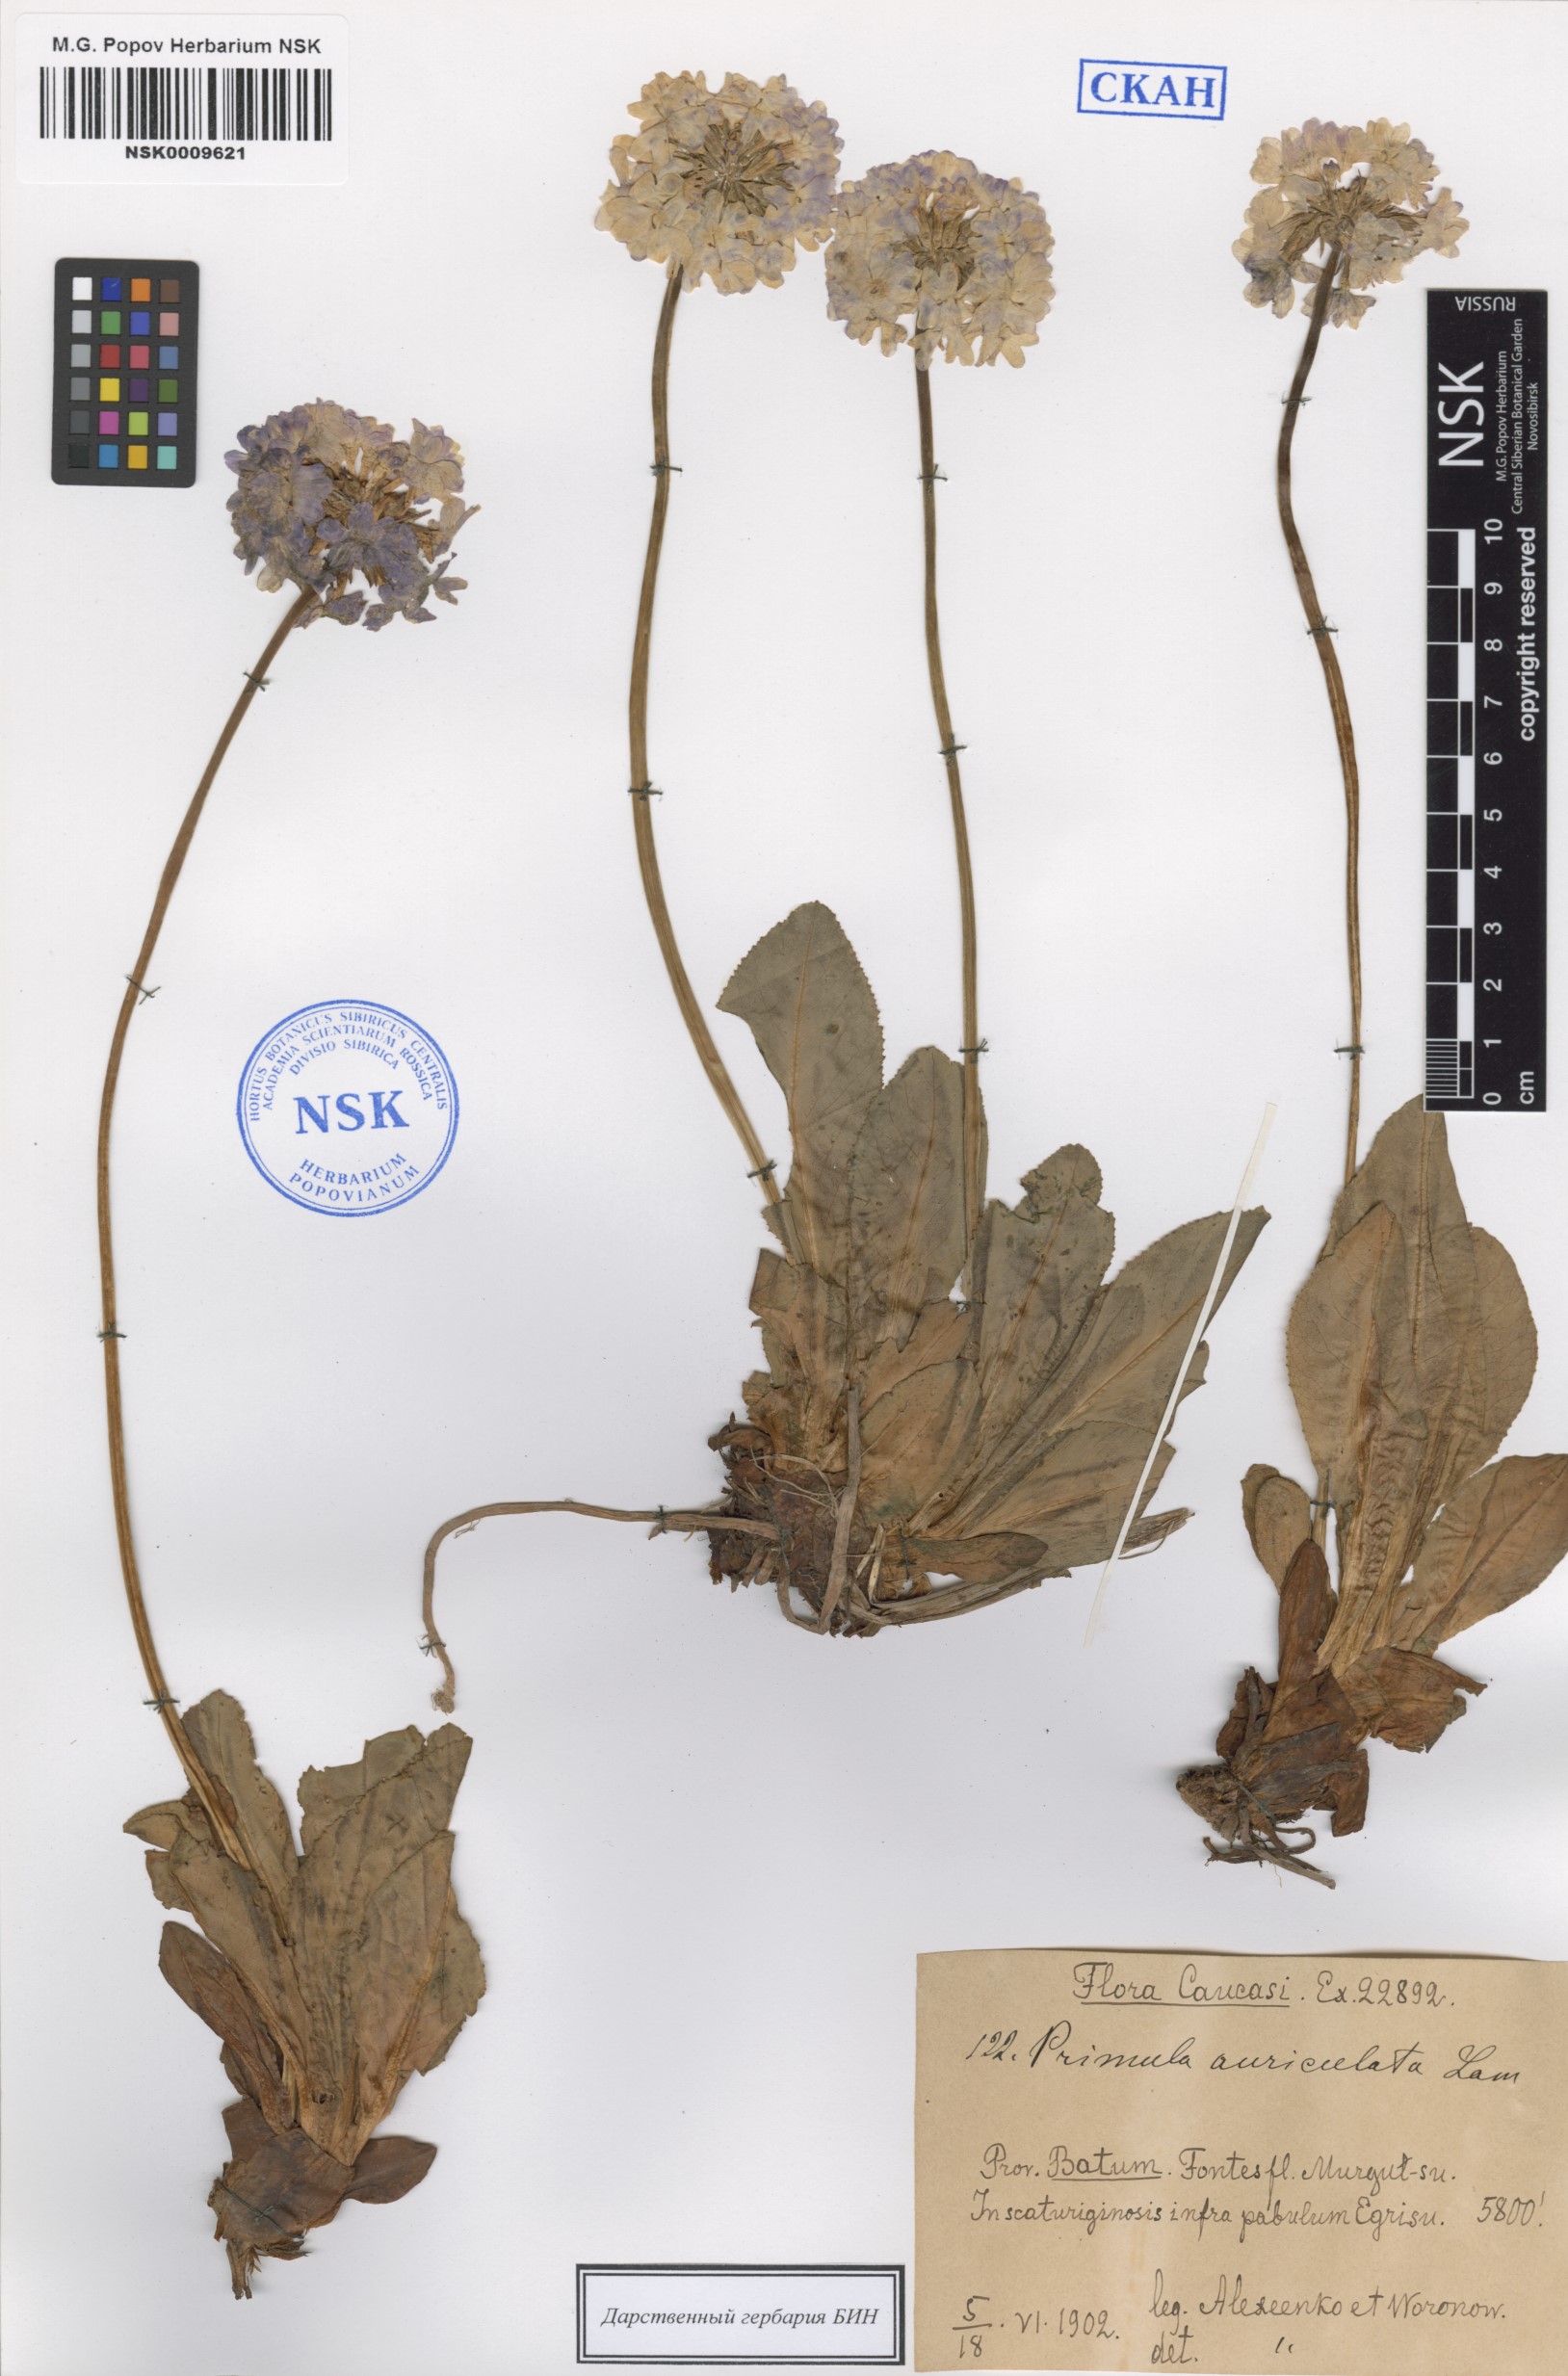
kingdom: Plantae
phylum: Tracheophyta
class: Magnoliopsida
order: Ericales
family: Primulaceae
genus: Primula
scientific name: Primula auriculata
